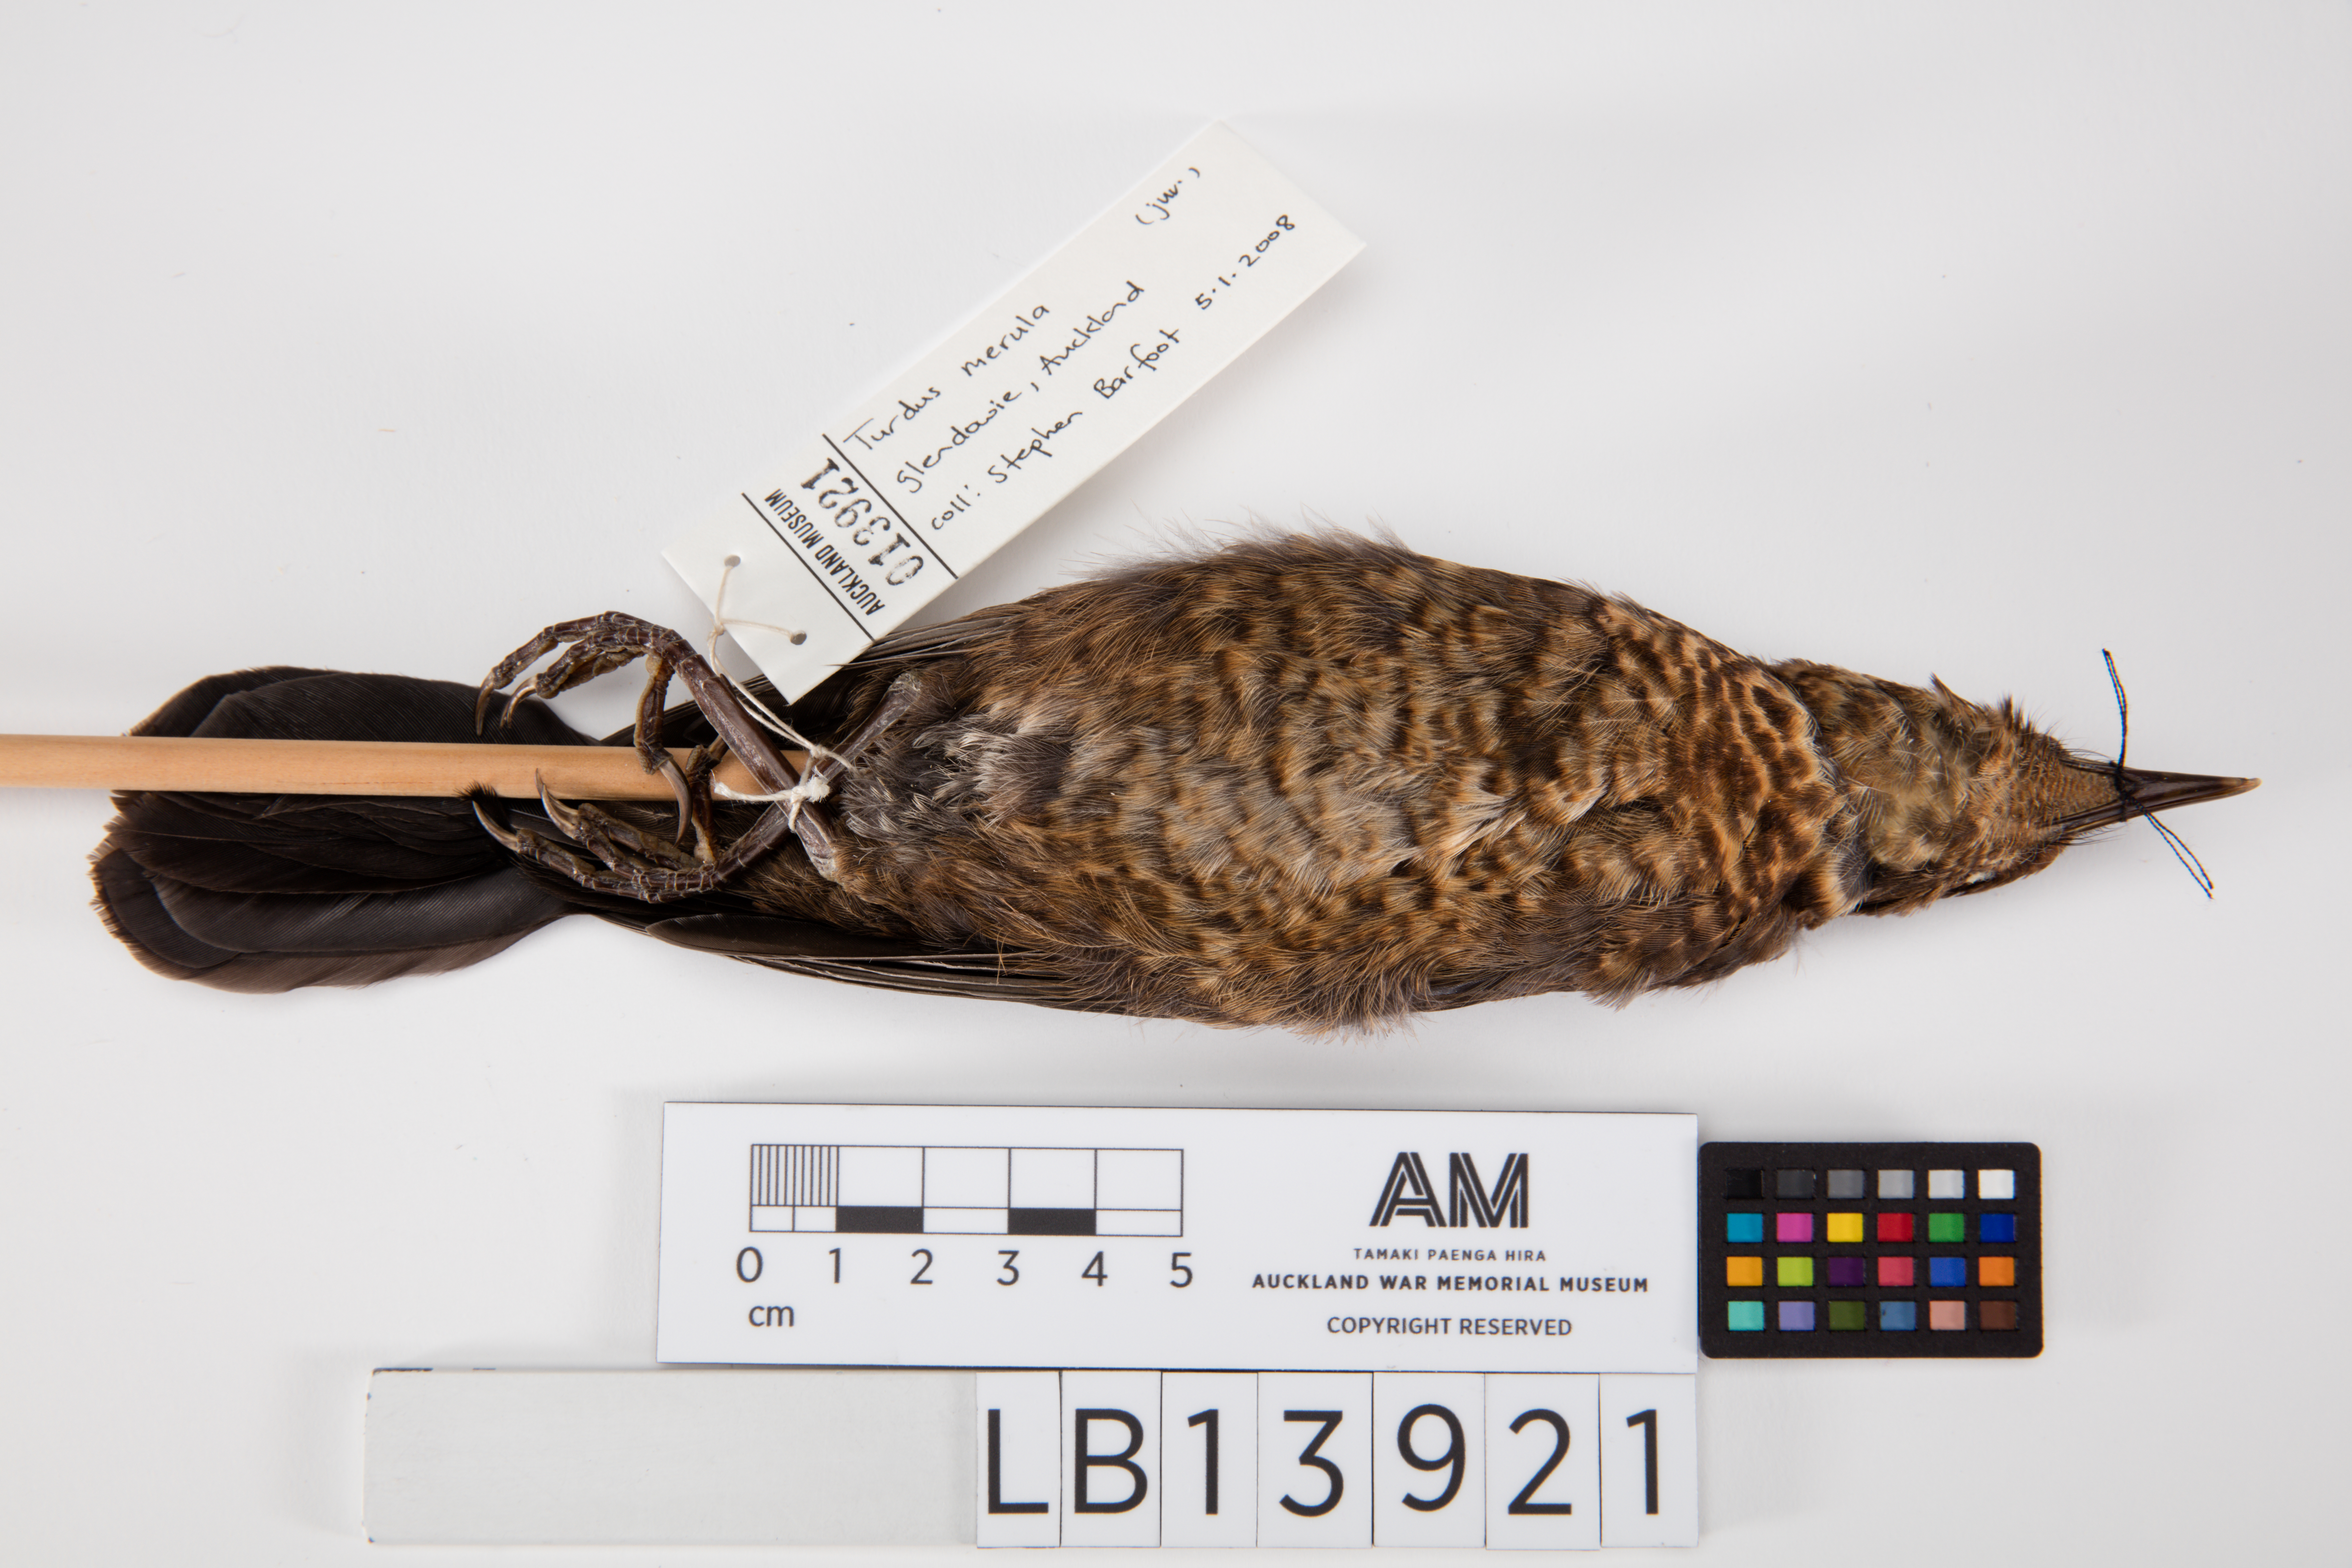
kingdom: Animalia
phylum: Chordata
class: Aves
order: Passeriformes
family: Turdidae
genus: Turdus
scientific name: Turdus merula
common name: Common blackbird
